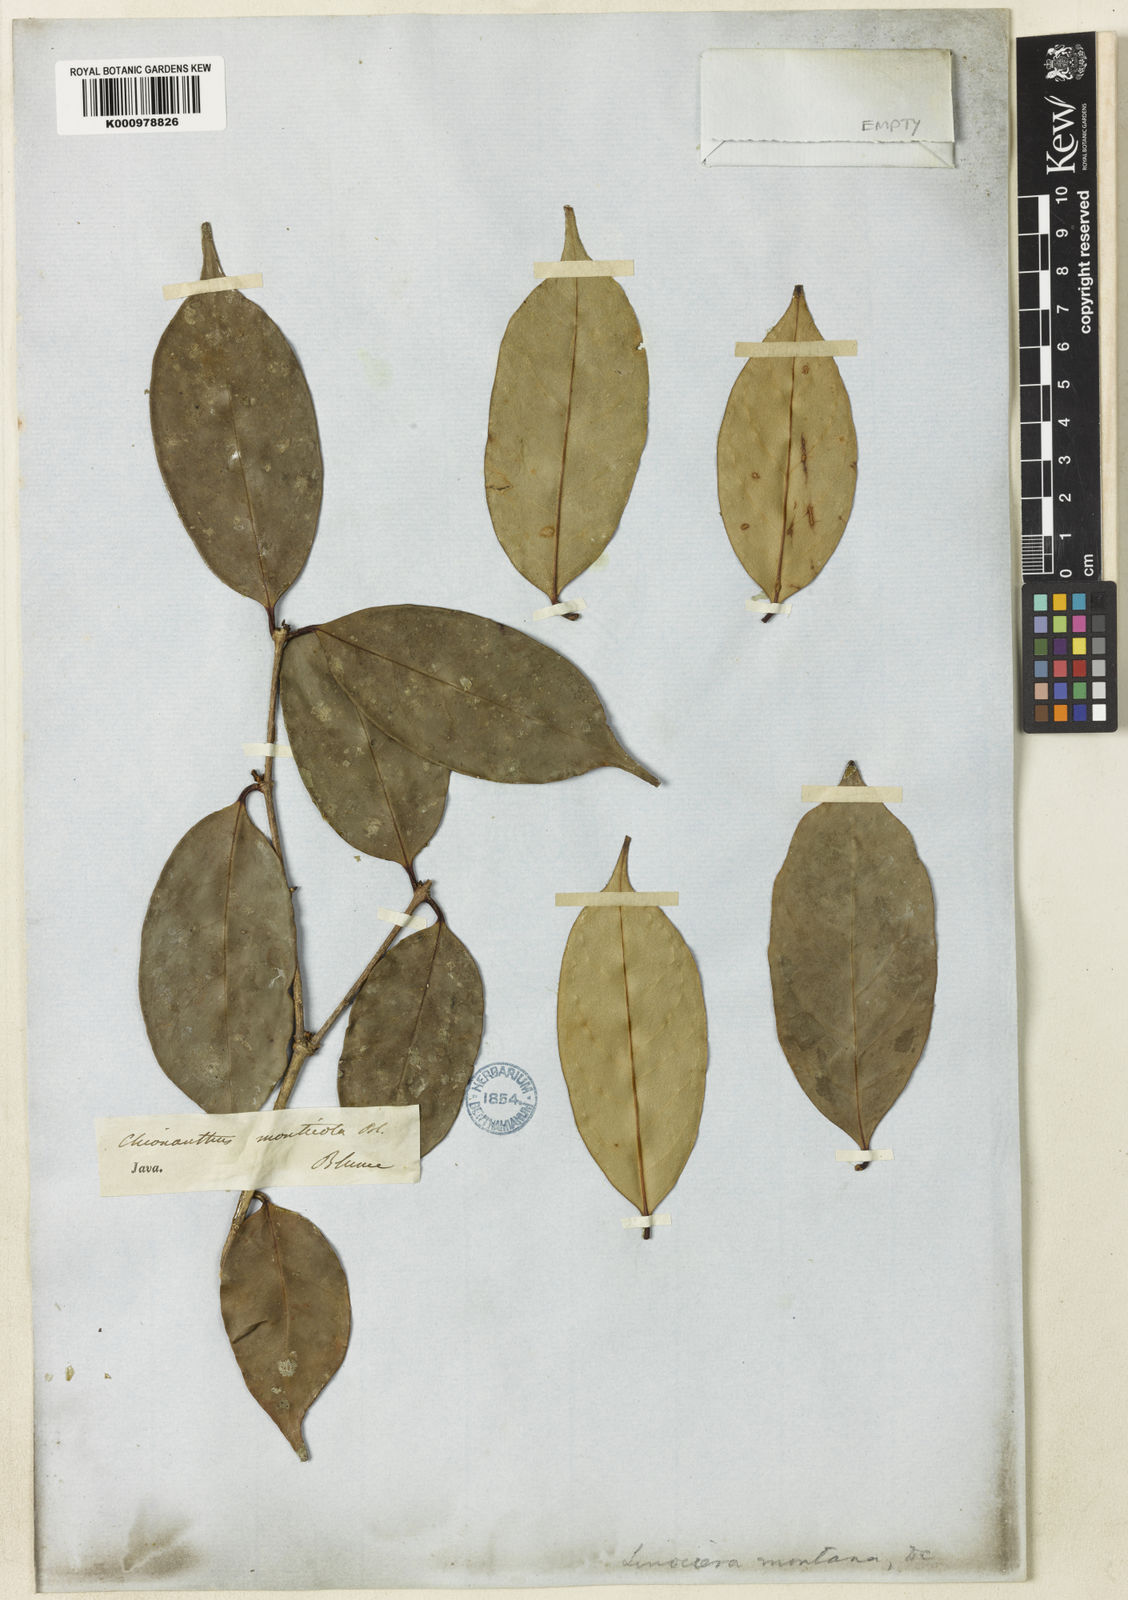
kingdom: Plantae
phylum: Tracheophyta
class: Magnoliopsida
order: Lamiales
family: Oleaceae
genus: Chionanthus
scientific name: Chionanthus montanus
